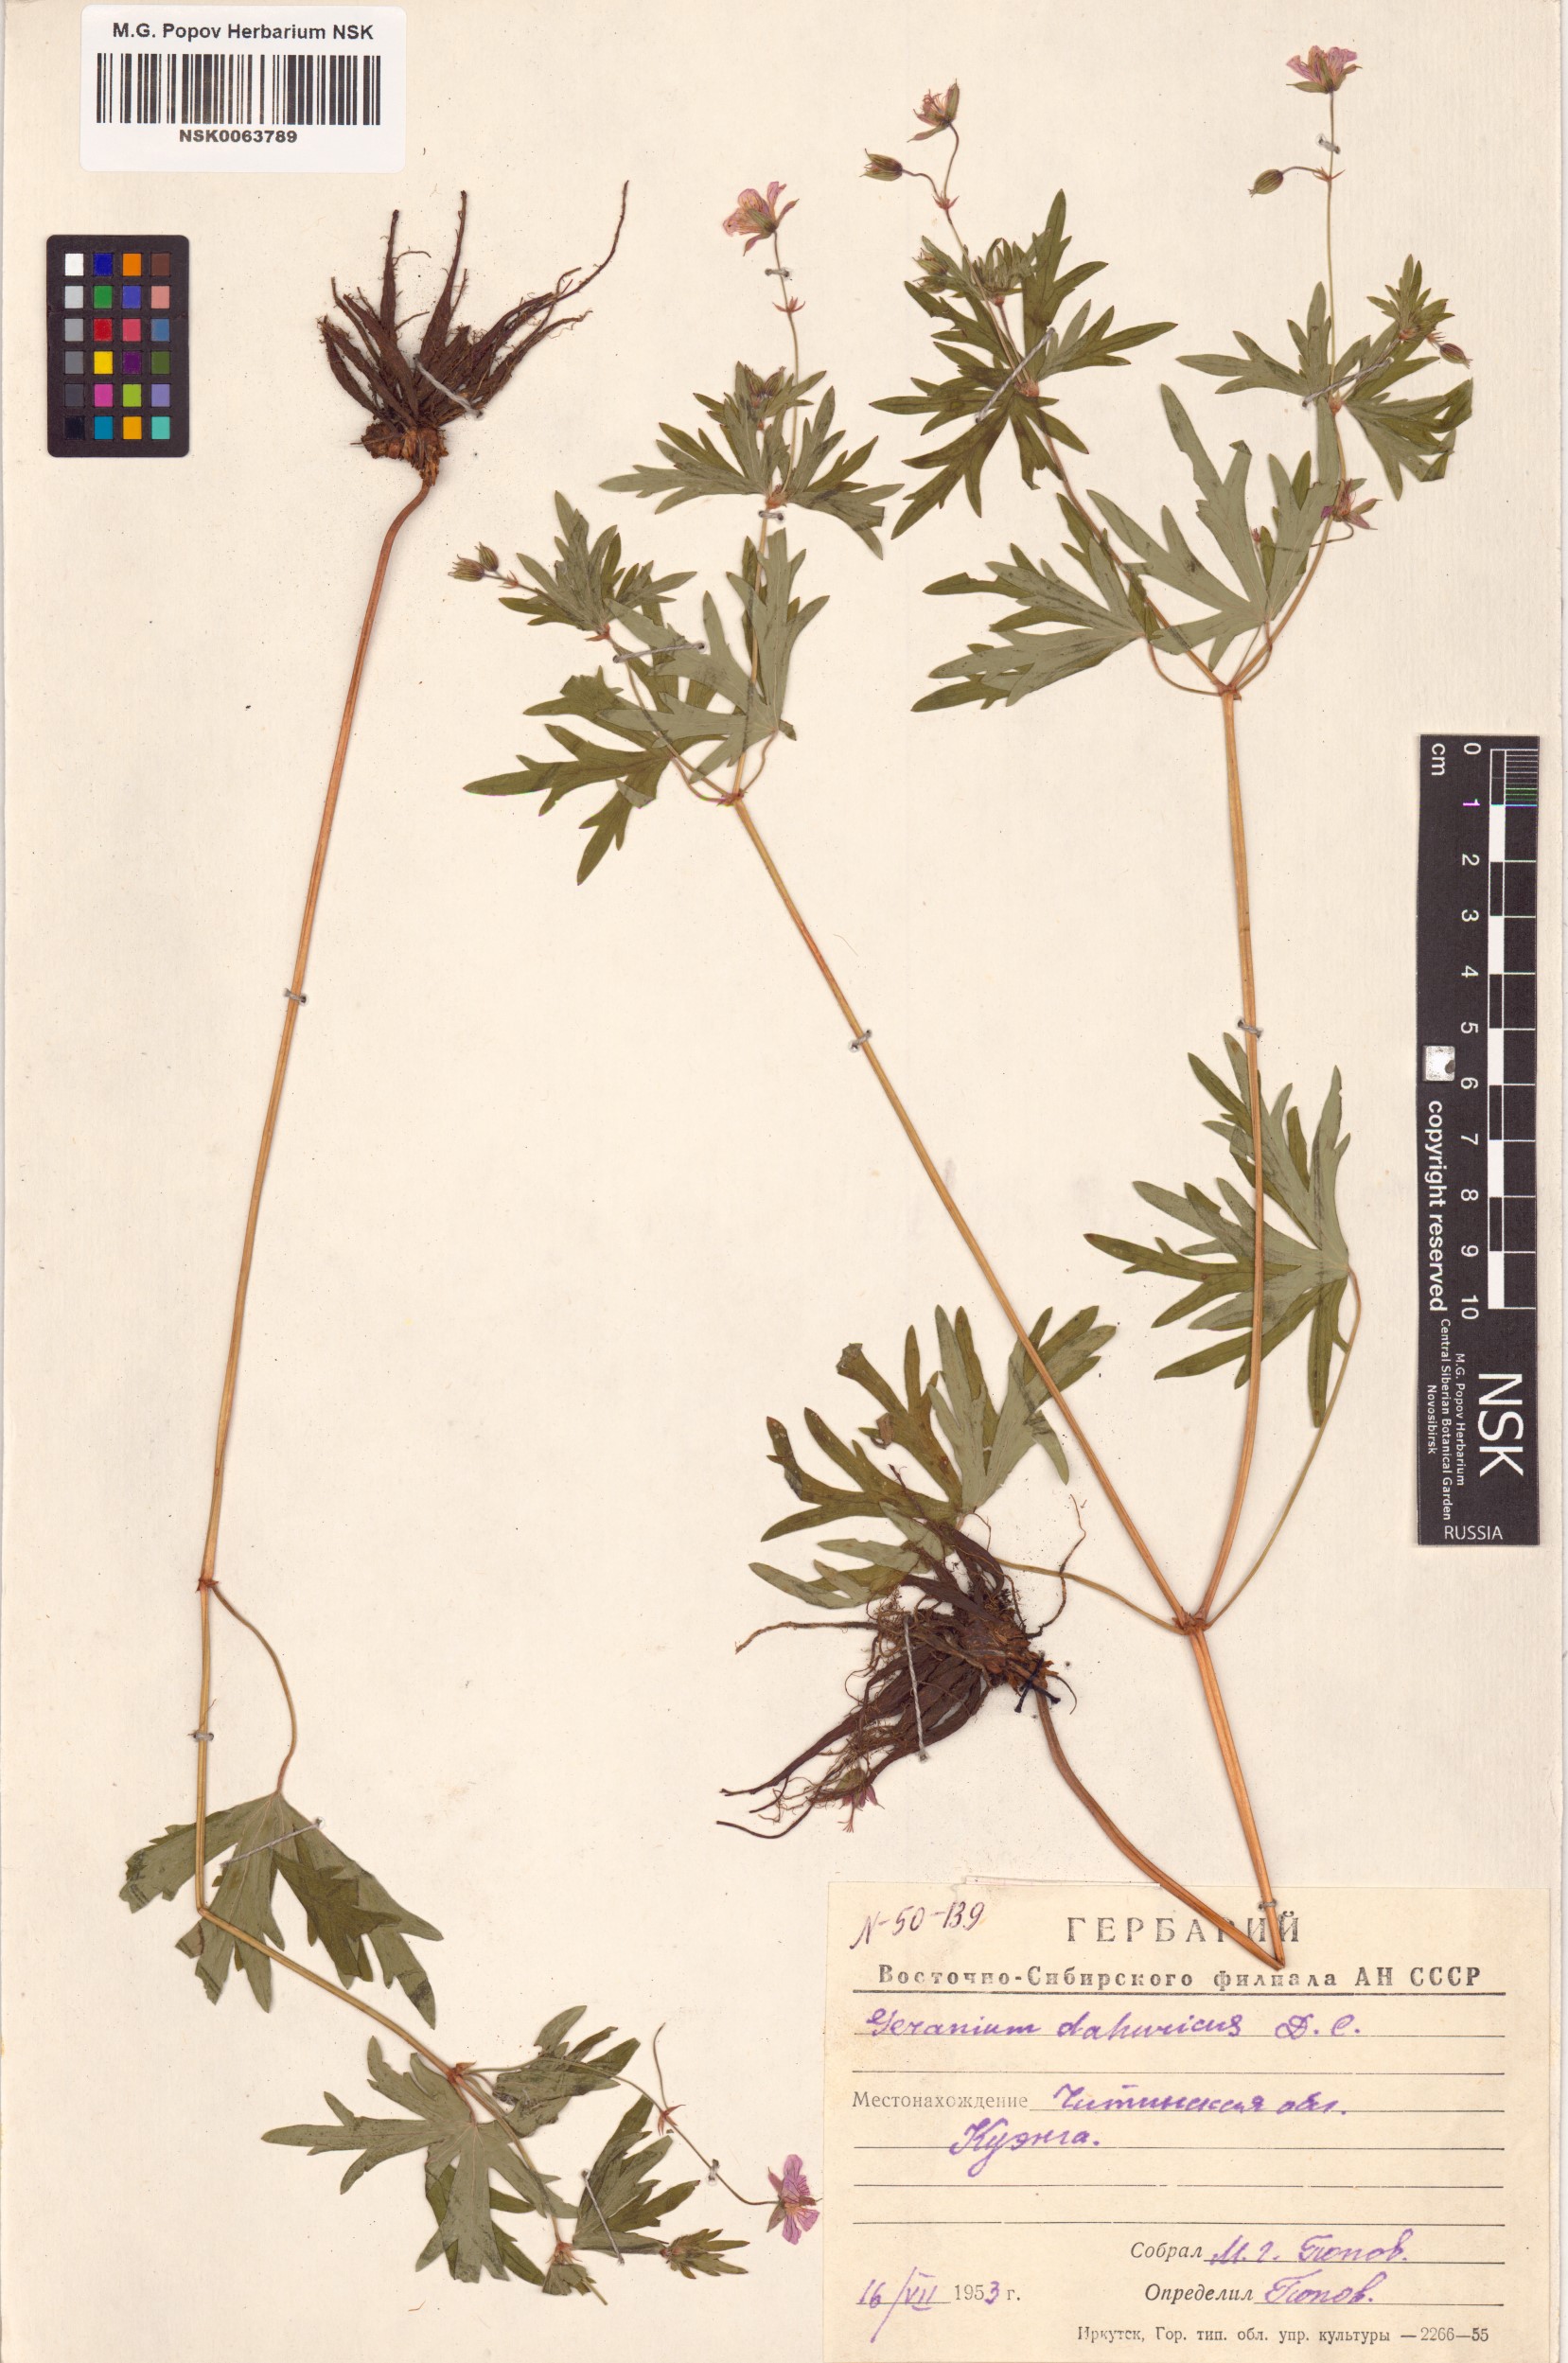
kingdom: Plantae
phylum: Tracheophyta
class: Magnoliopsida
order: Geraniales
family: Geraniaceae
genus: Geranium
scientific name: Geranium dahuricum
